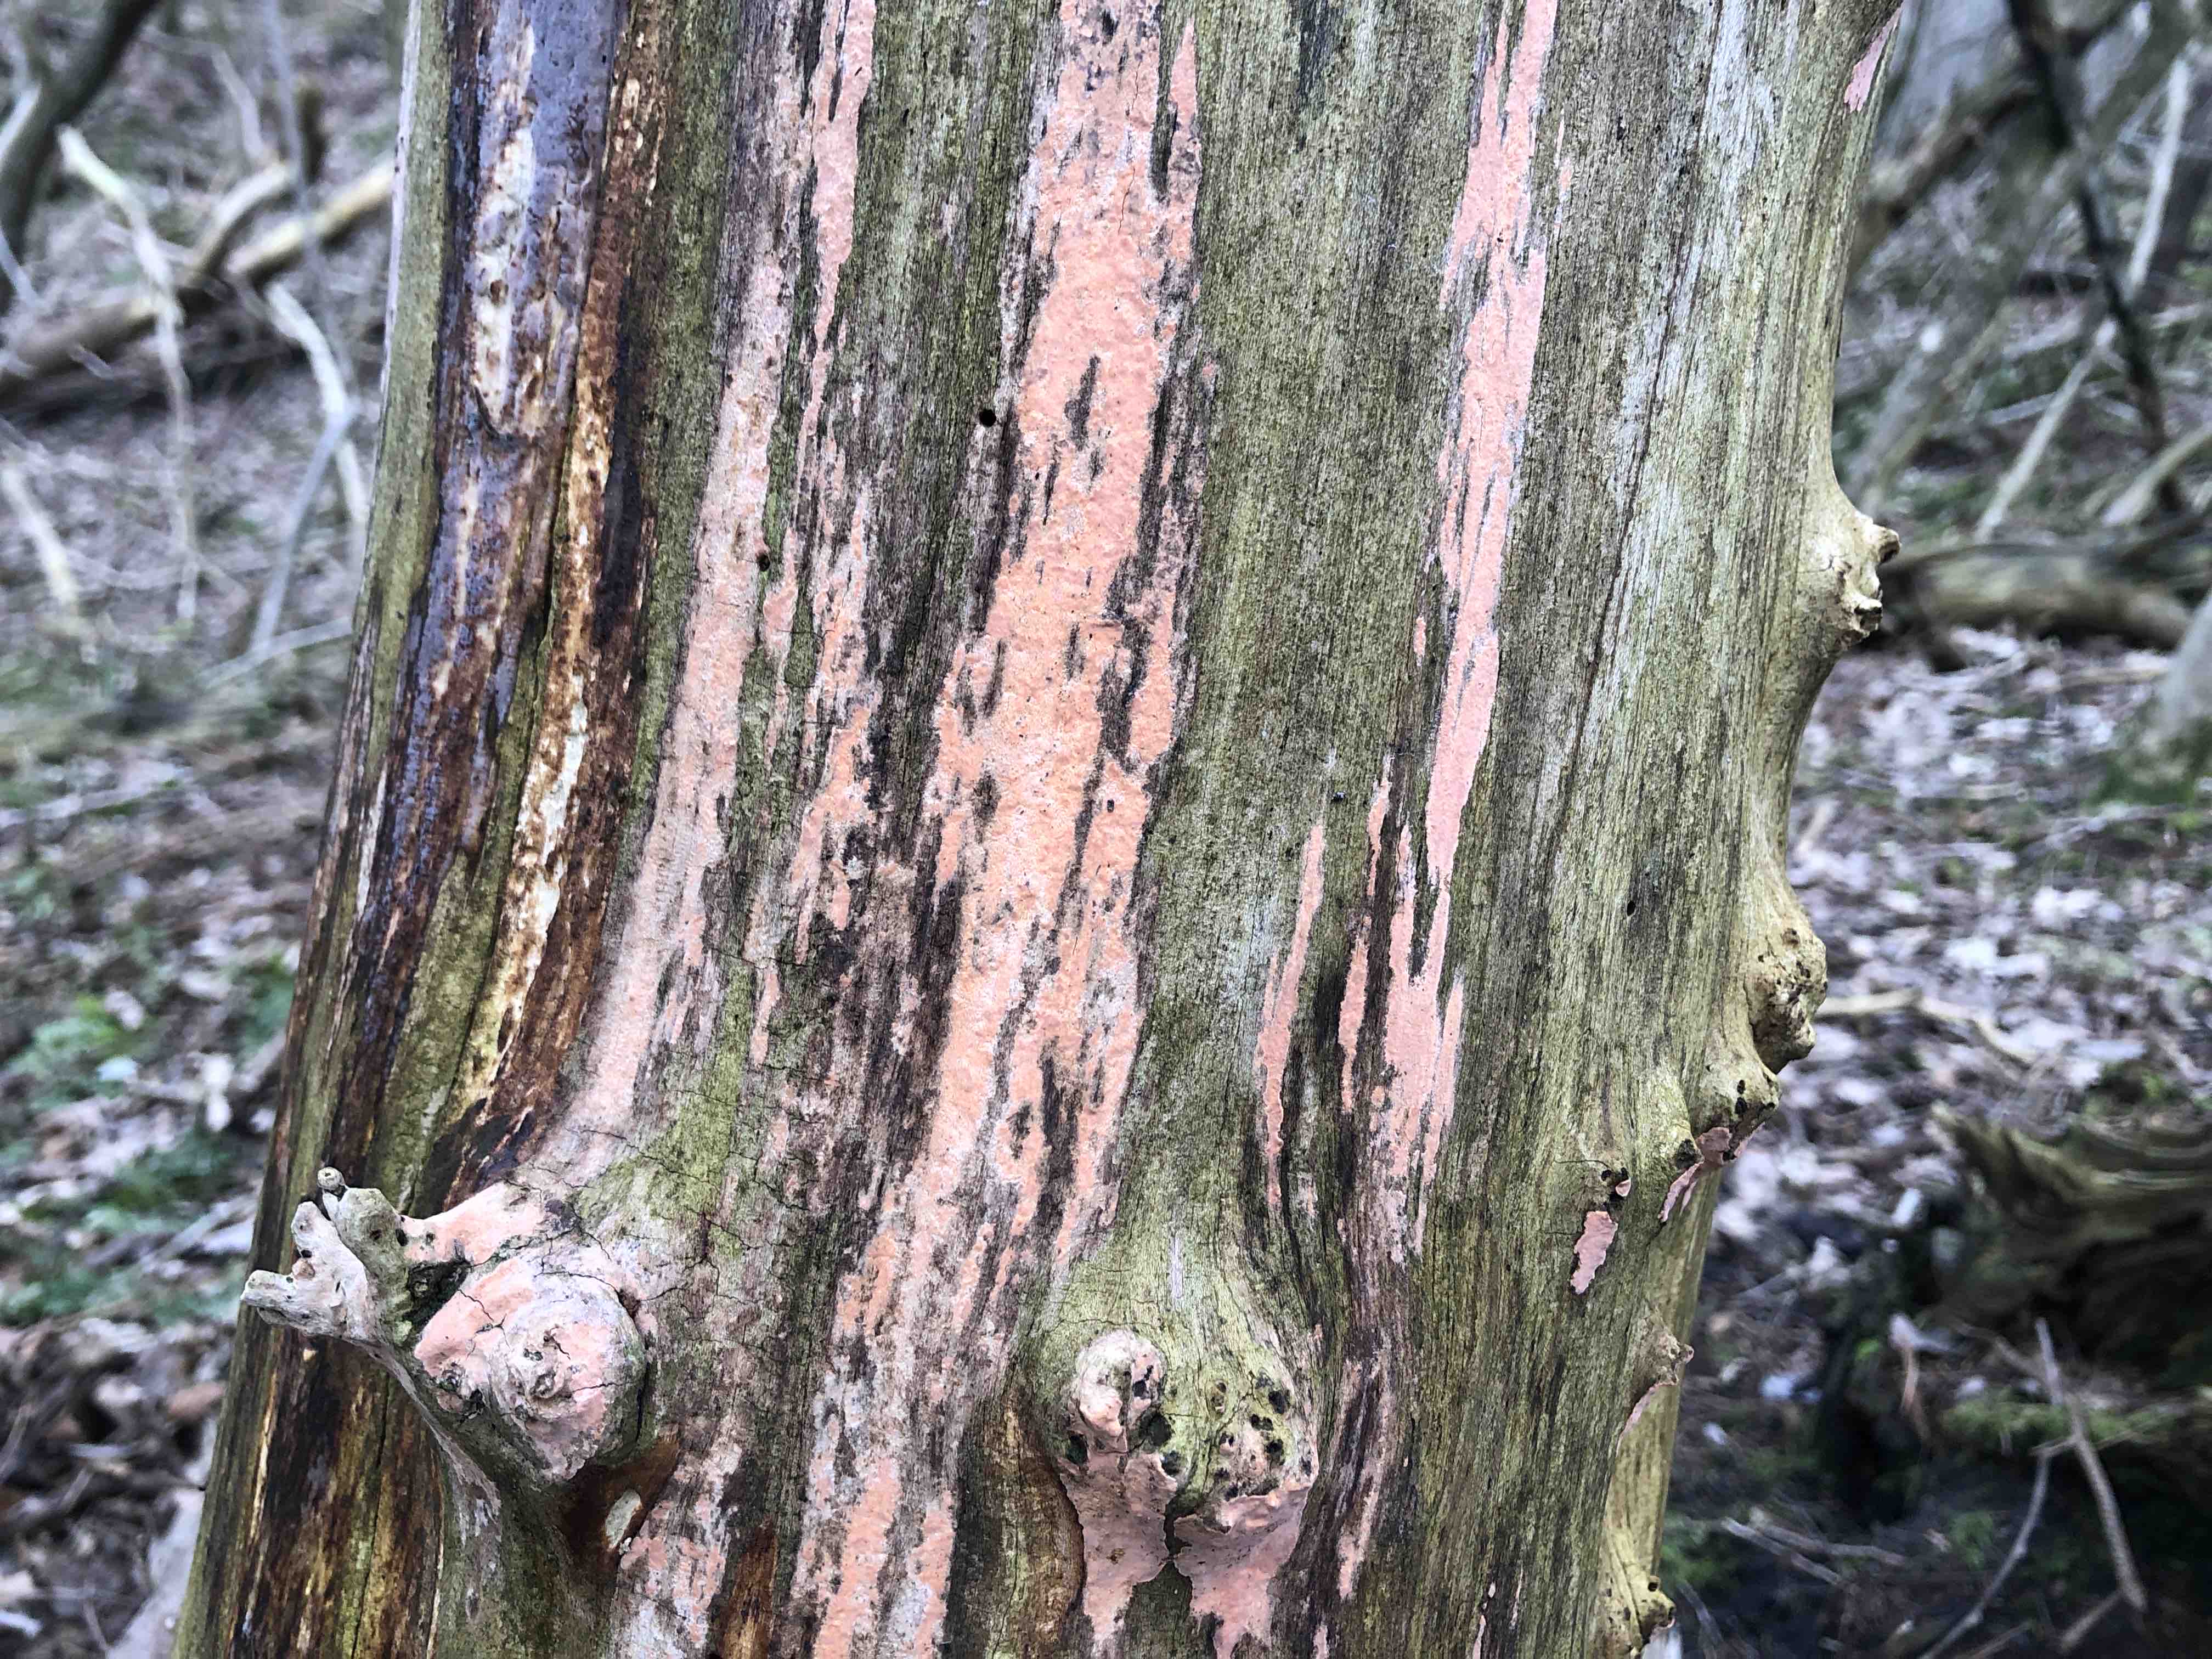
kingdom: Fungi
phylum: Basidiomycota
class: Agaricomycetes
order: Russulales
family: Peniophoraceae
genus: Peniophora
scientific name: Peniophora incarnata
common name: laksefarvet voksskind
